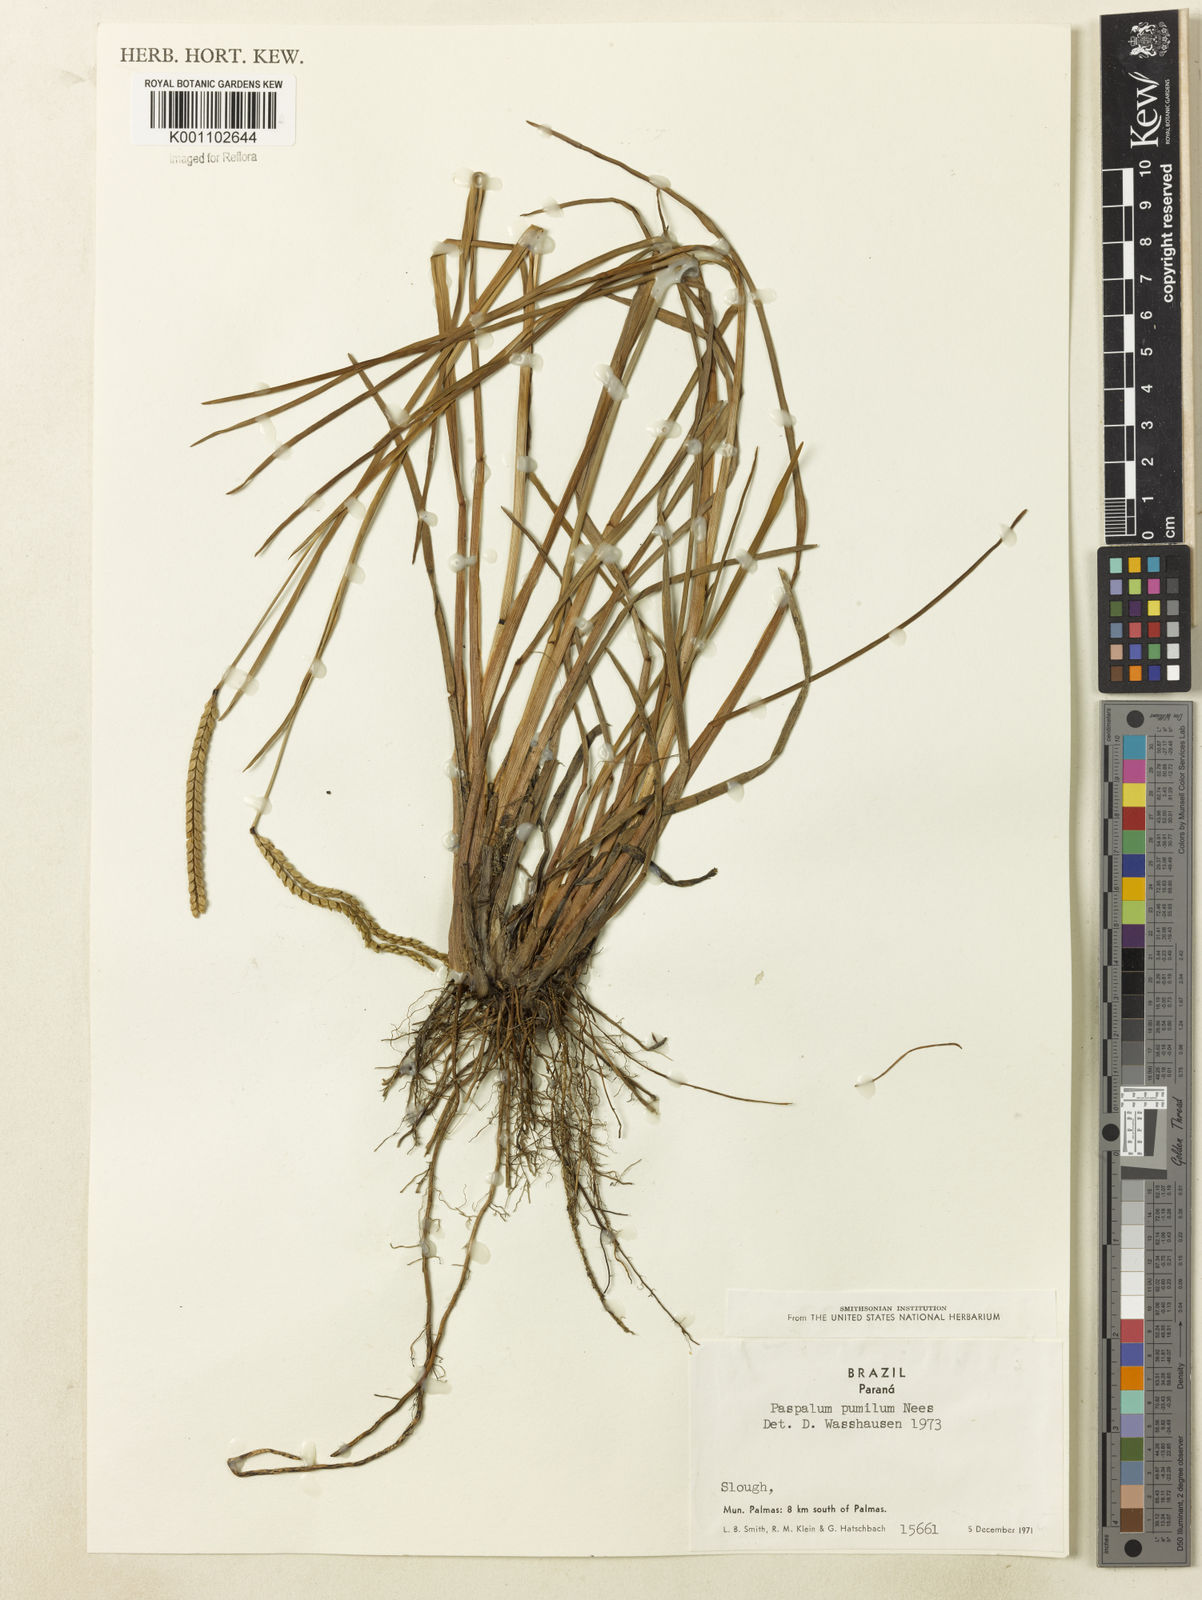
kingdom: Plantae
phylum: Tracheophyta
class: Liliopsida
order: Poales
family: Poaceae
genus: Paspalum
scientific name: Paspalum ramboi
